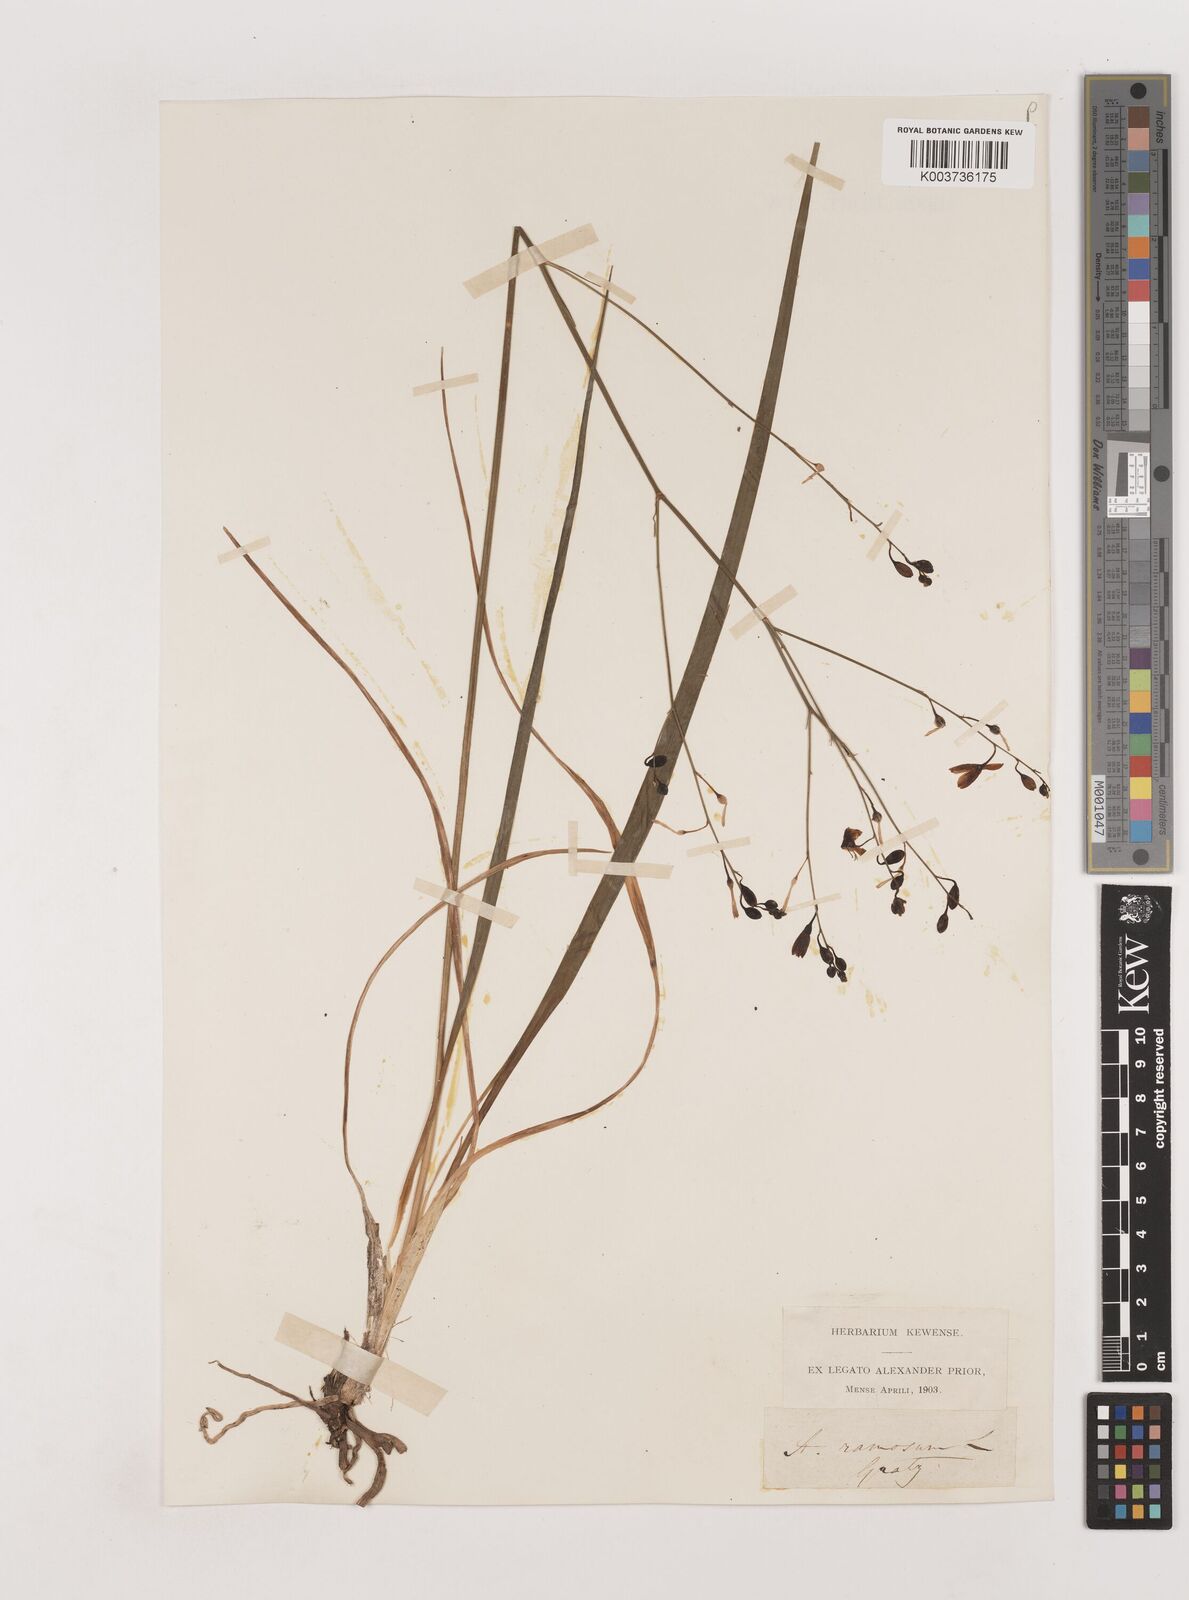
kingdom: Plantae
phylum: Tracheophyta
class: Liliopsida
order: Asparagales
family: Asparagaceae
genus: Anthericum
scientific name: Anthericum ramosum
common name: Branched st. bernard's-lily
